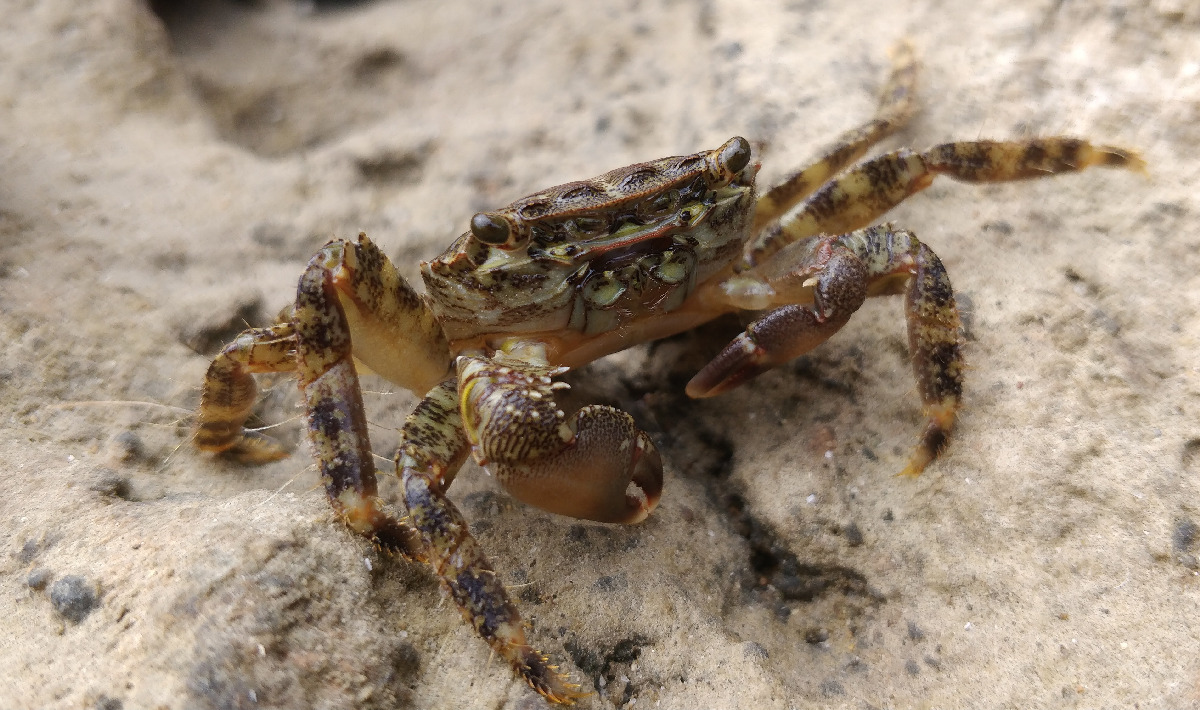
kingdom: Animalia
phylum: Arthropoda
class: Malacostraca
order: Decapoda
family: Grapsidae
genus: Pachygrapsus
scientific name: Pachygrapsus marmoratus
